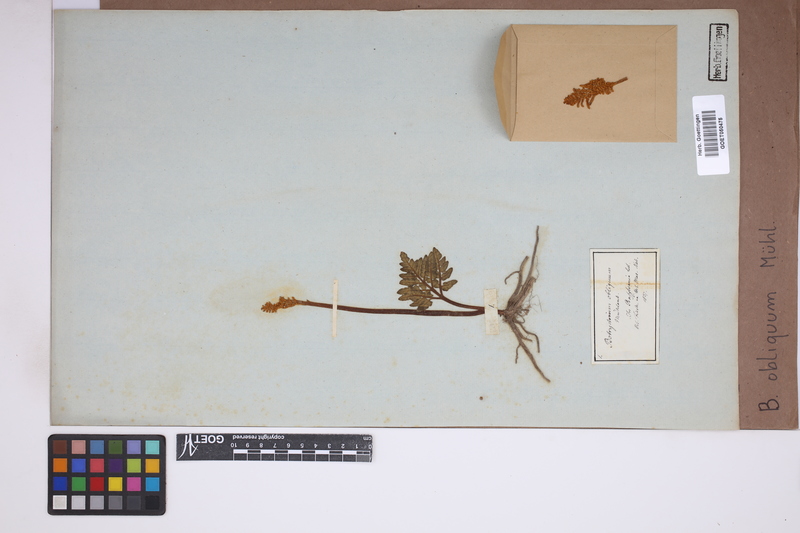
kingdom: Plantae
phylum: Tracheophyta
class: Polypodiopsida
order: Ophioglossales
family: Ophioglossaceae
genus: Sceptridium
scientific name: Sceptridium dissectum
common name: Cut-leaved grapefern
